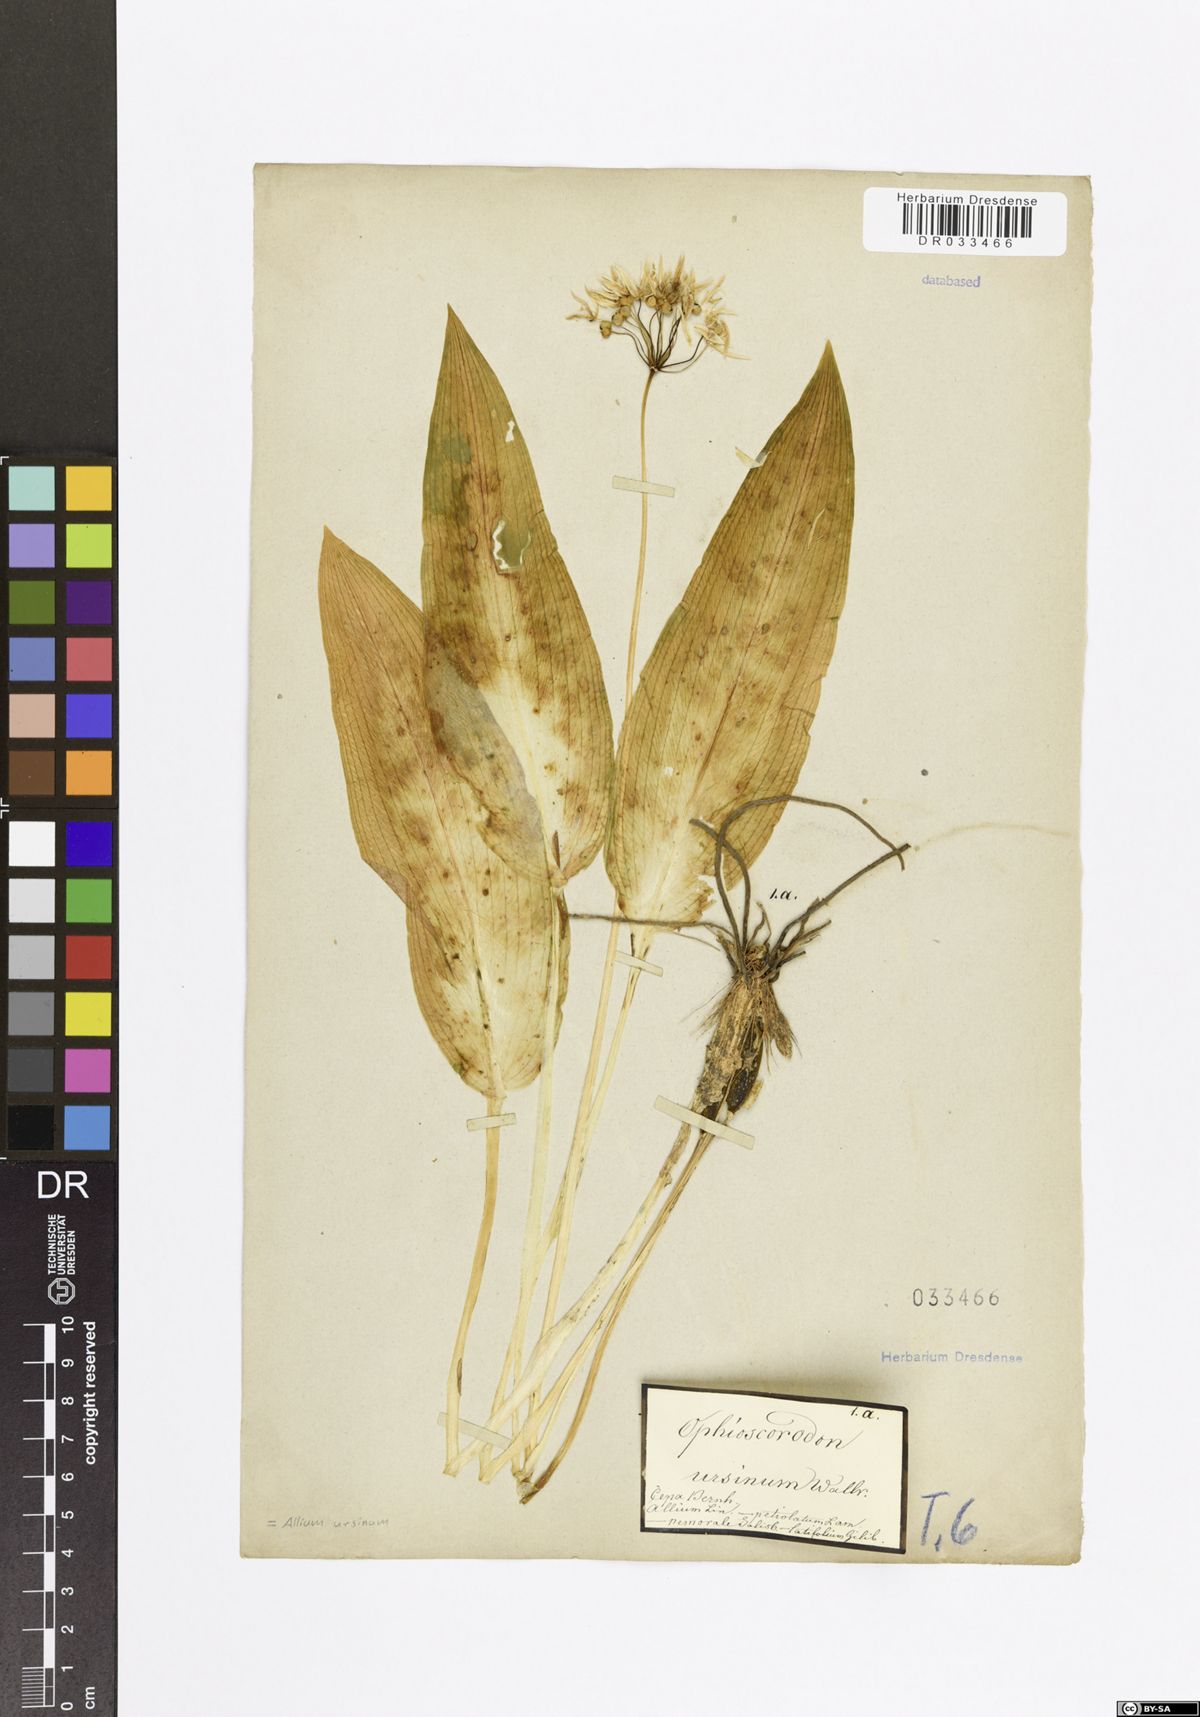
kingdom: Plantae
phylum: Tracheophyta
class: Liliopsida
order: Asparagales
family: Amaryllidaceae
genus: Allium
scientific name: Allium ursinum
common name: Ramsons
